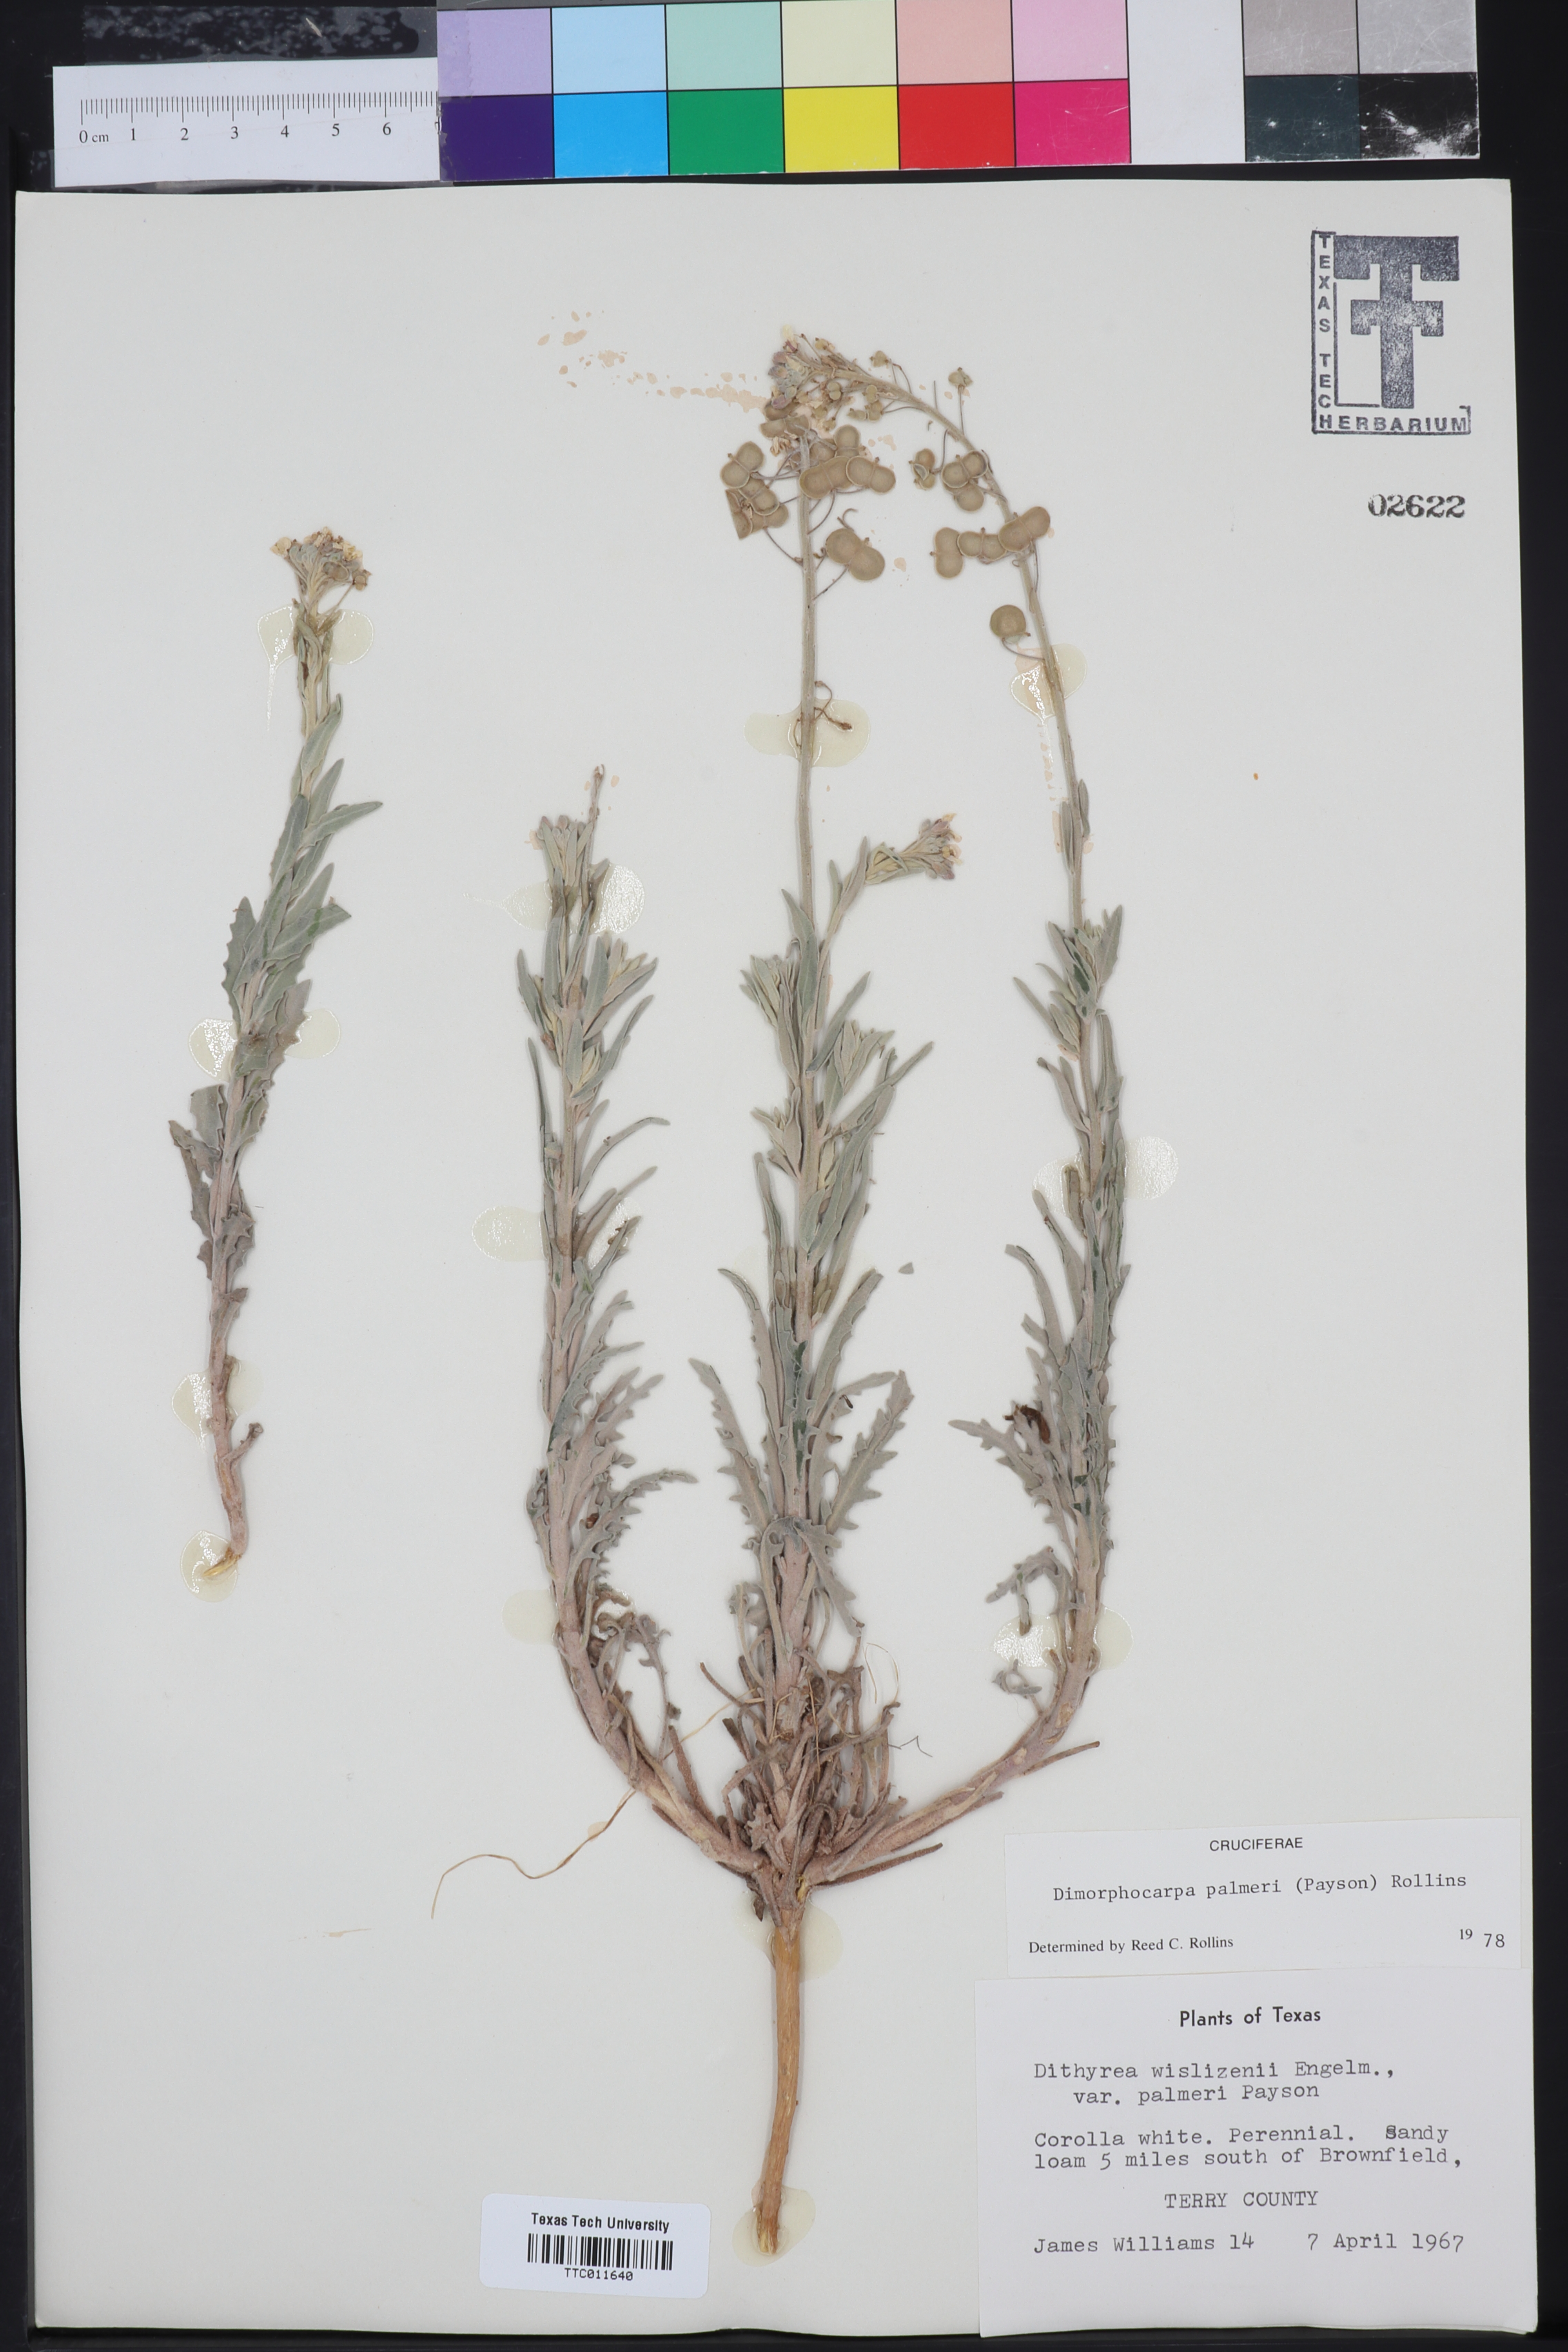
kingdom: Plantae
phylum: Tracheophyta
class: Magnoliopsida
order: Brassicales
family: Brassicaceae
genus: Dimorphocarpa
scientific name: Dimorphocarpa candicans
